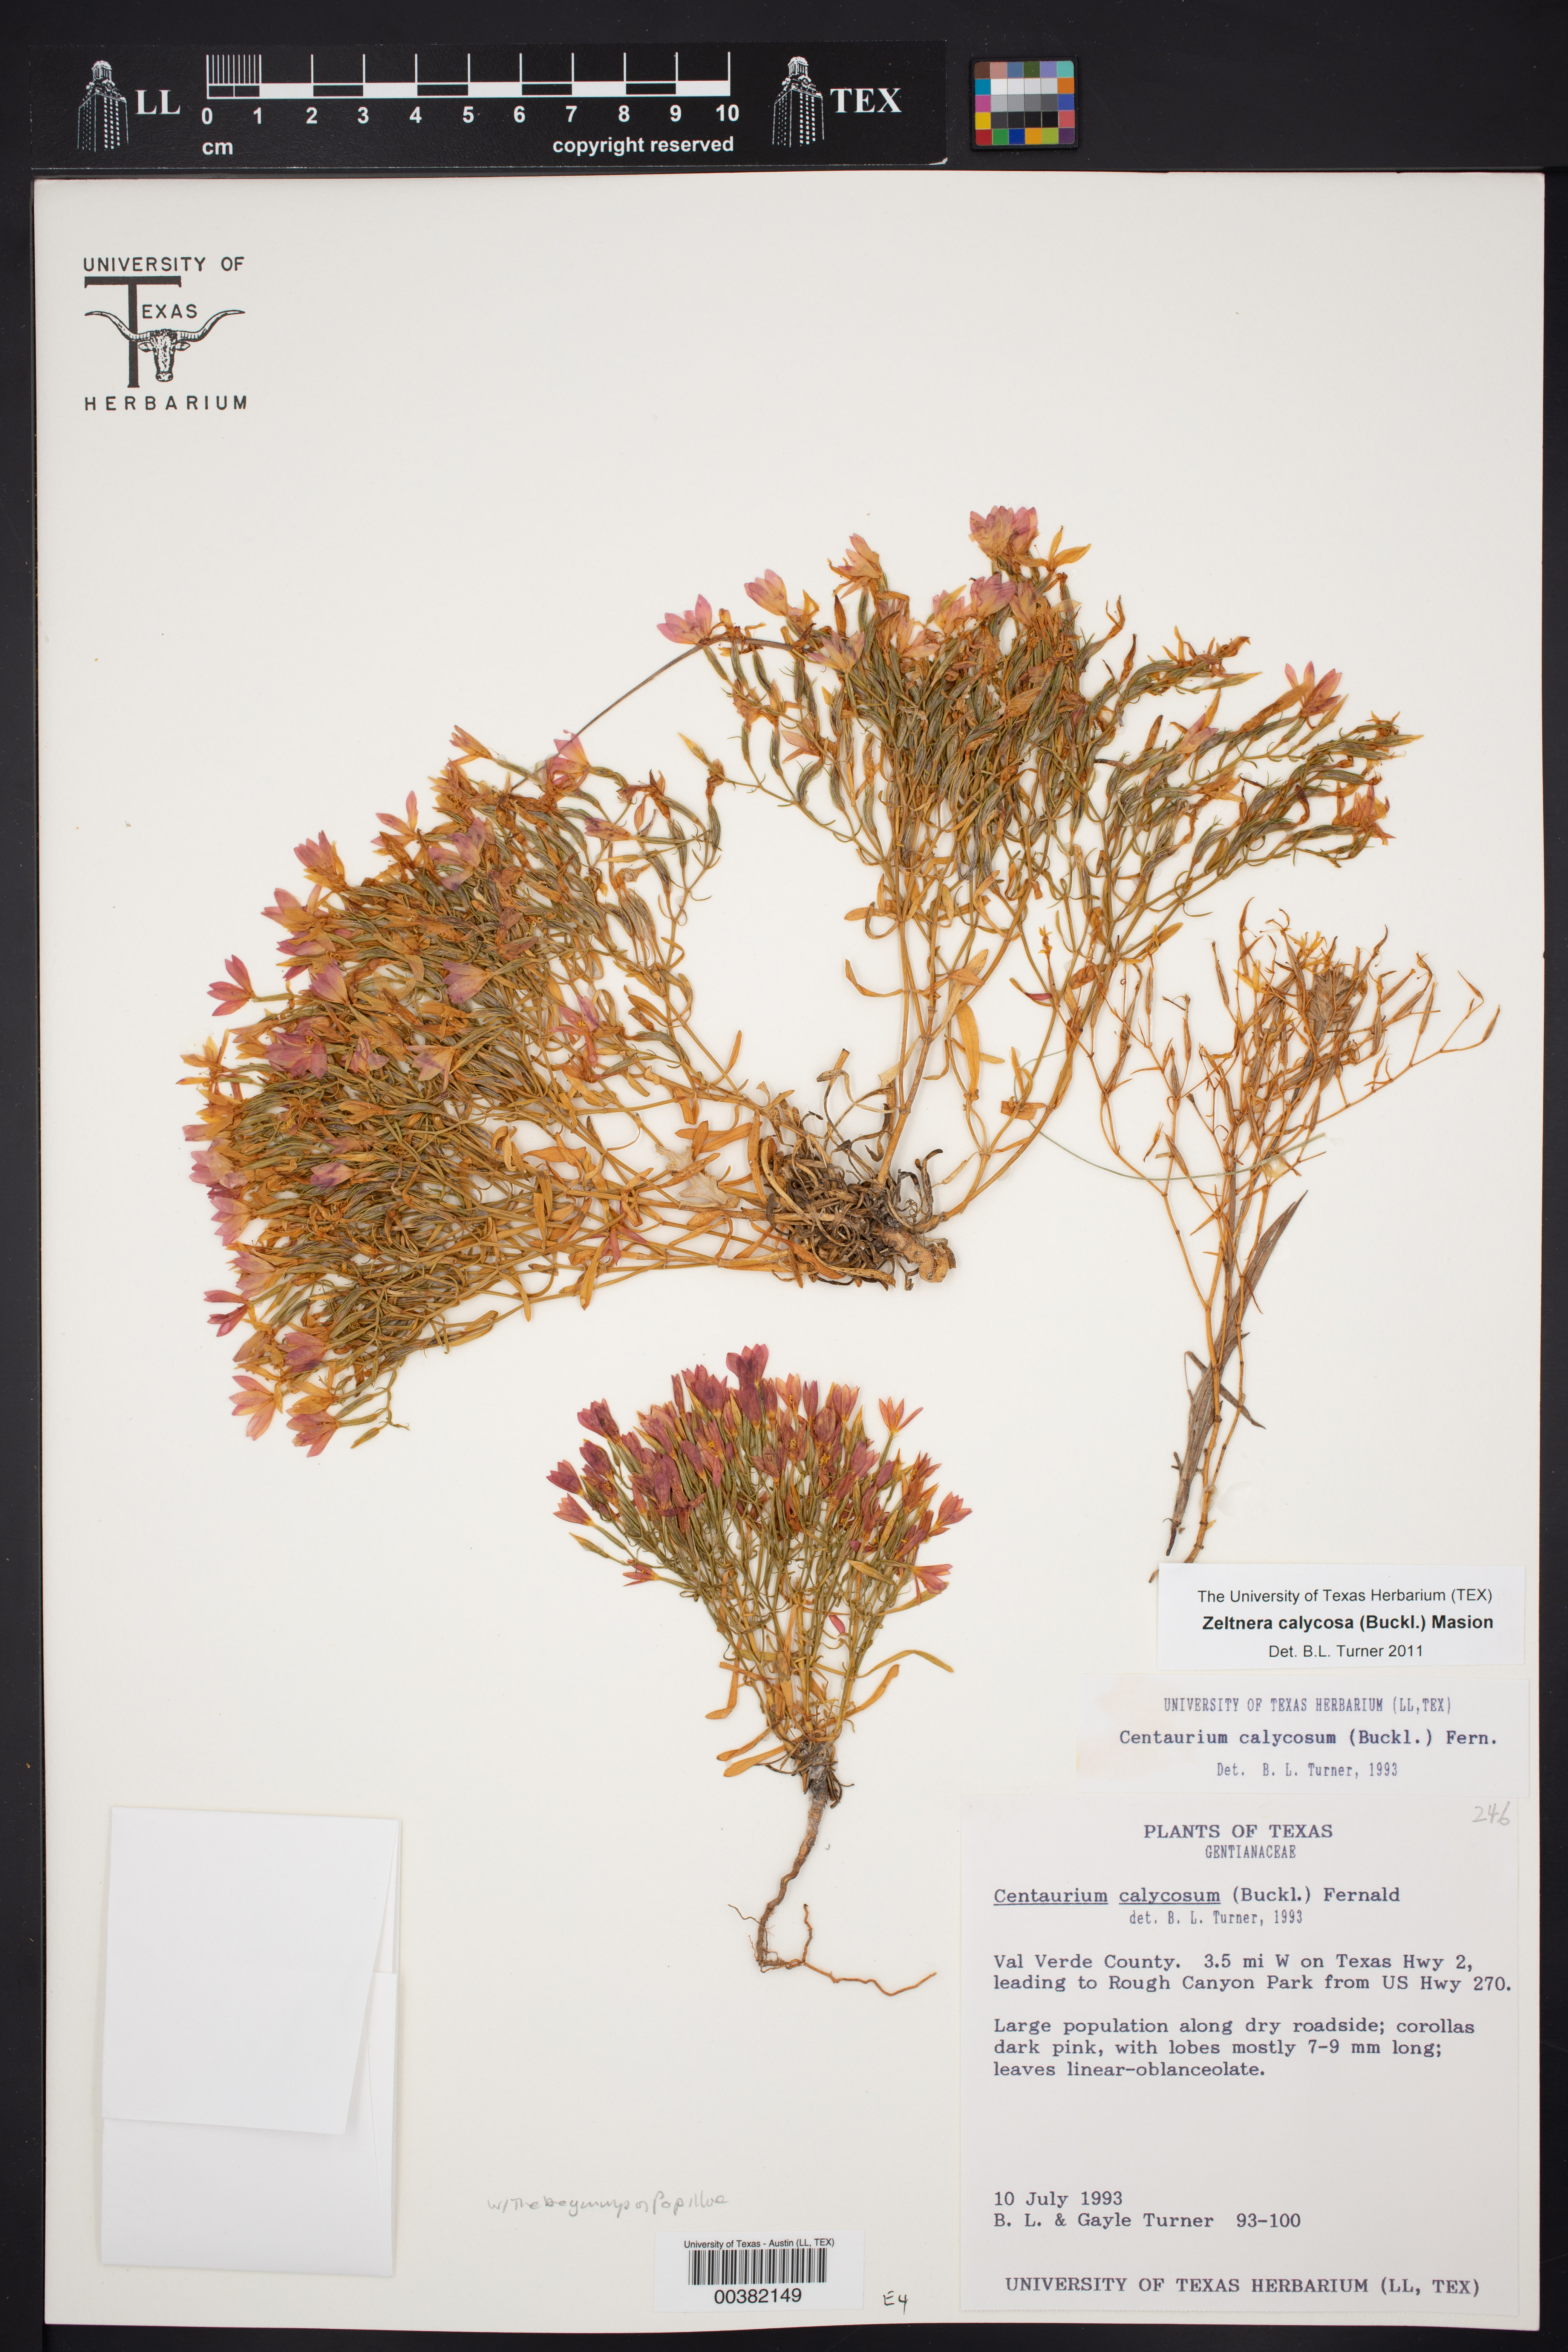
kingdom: Plantae
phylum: Tracheophyta
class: Magnoliopsida
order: Gentianales
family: Gentianaceae
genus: Zeltnera
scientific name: Zeltnera calycosa
